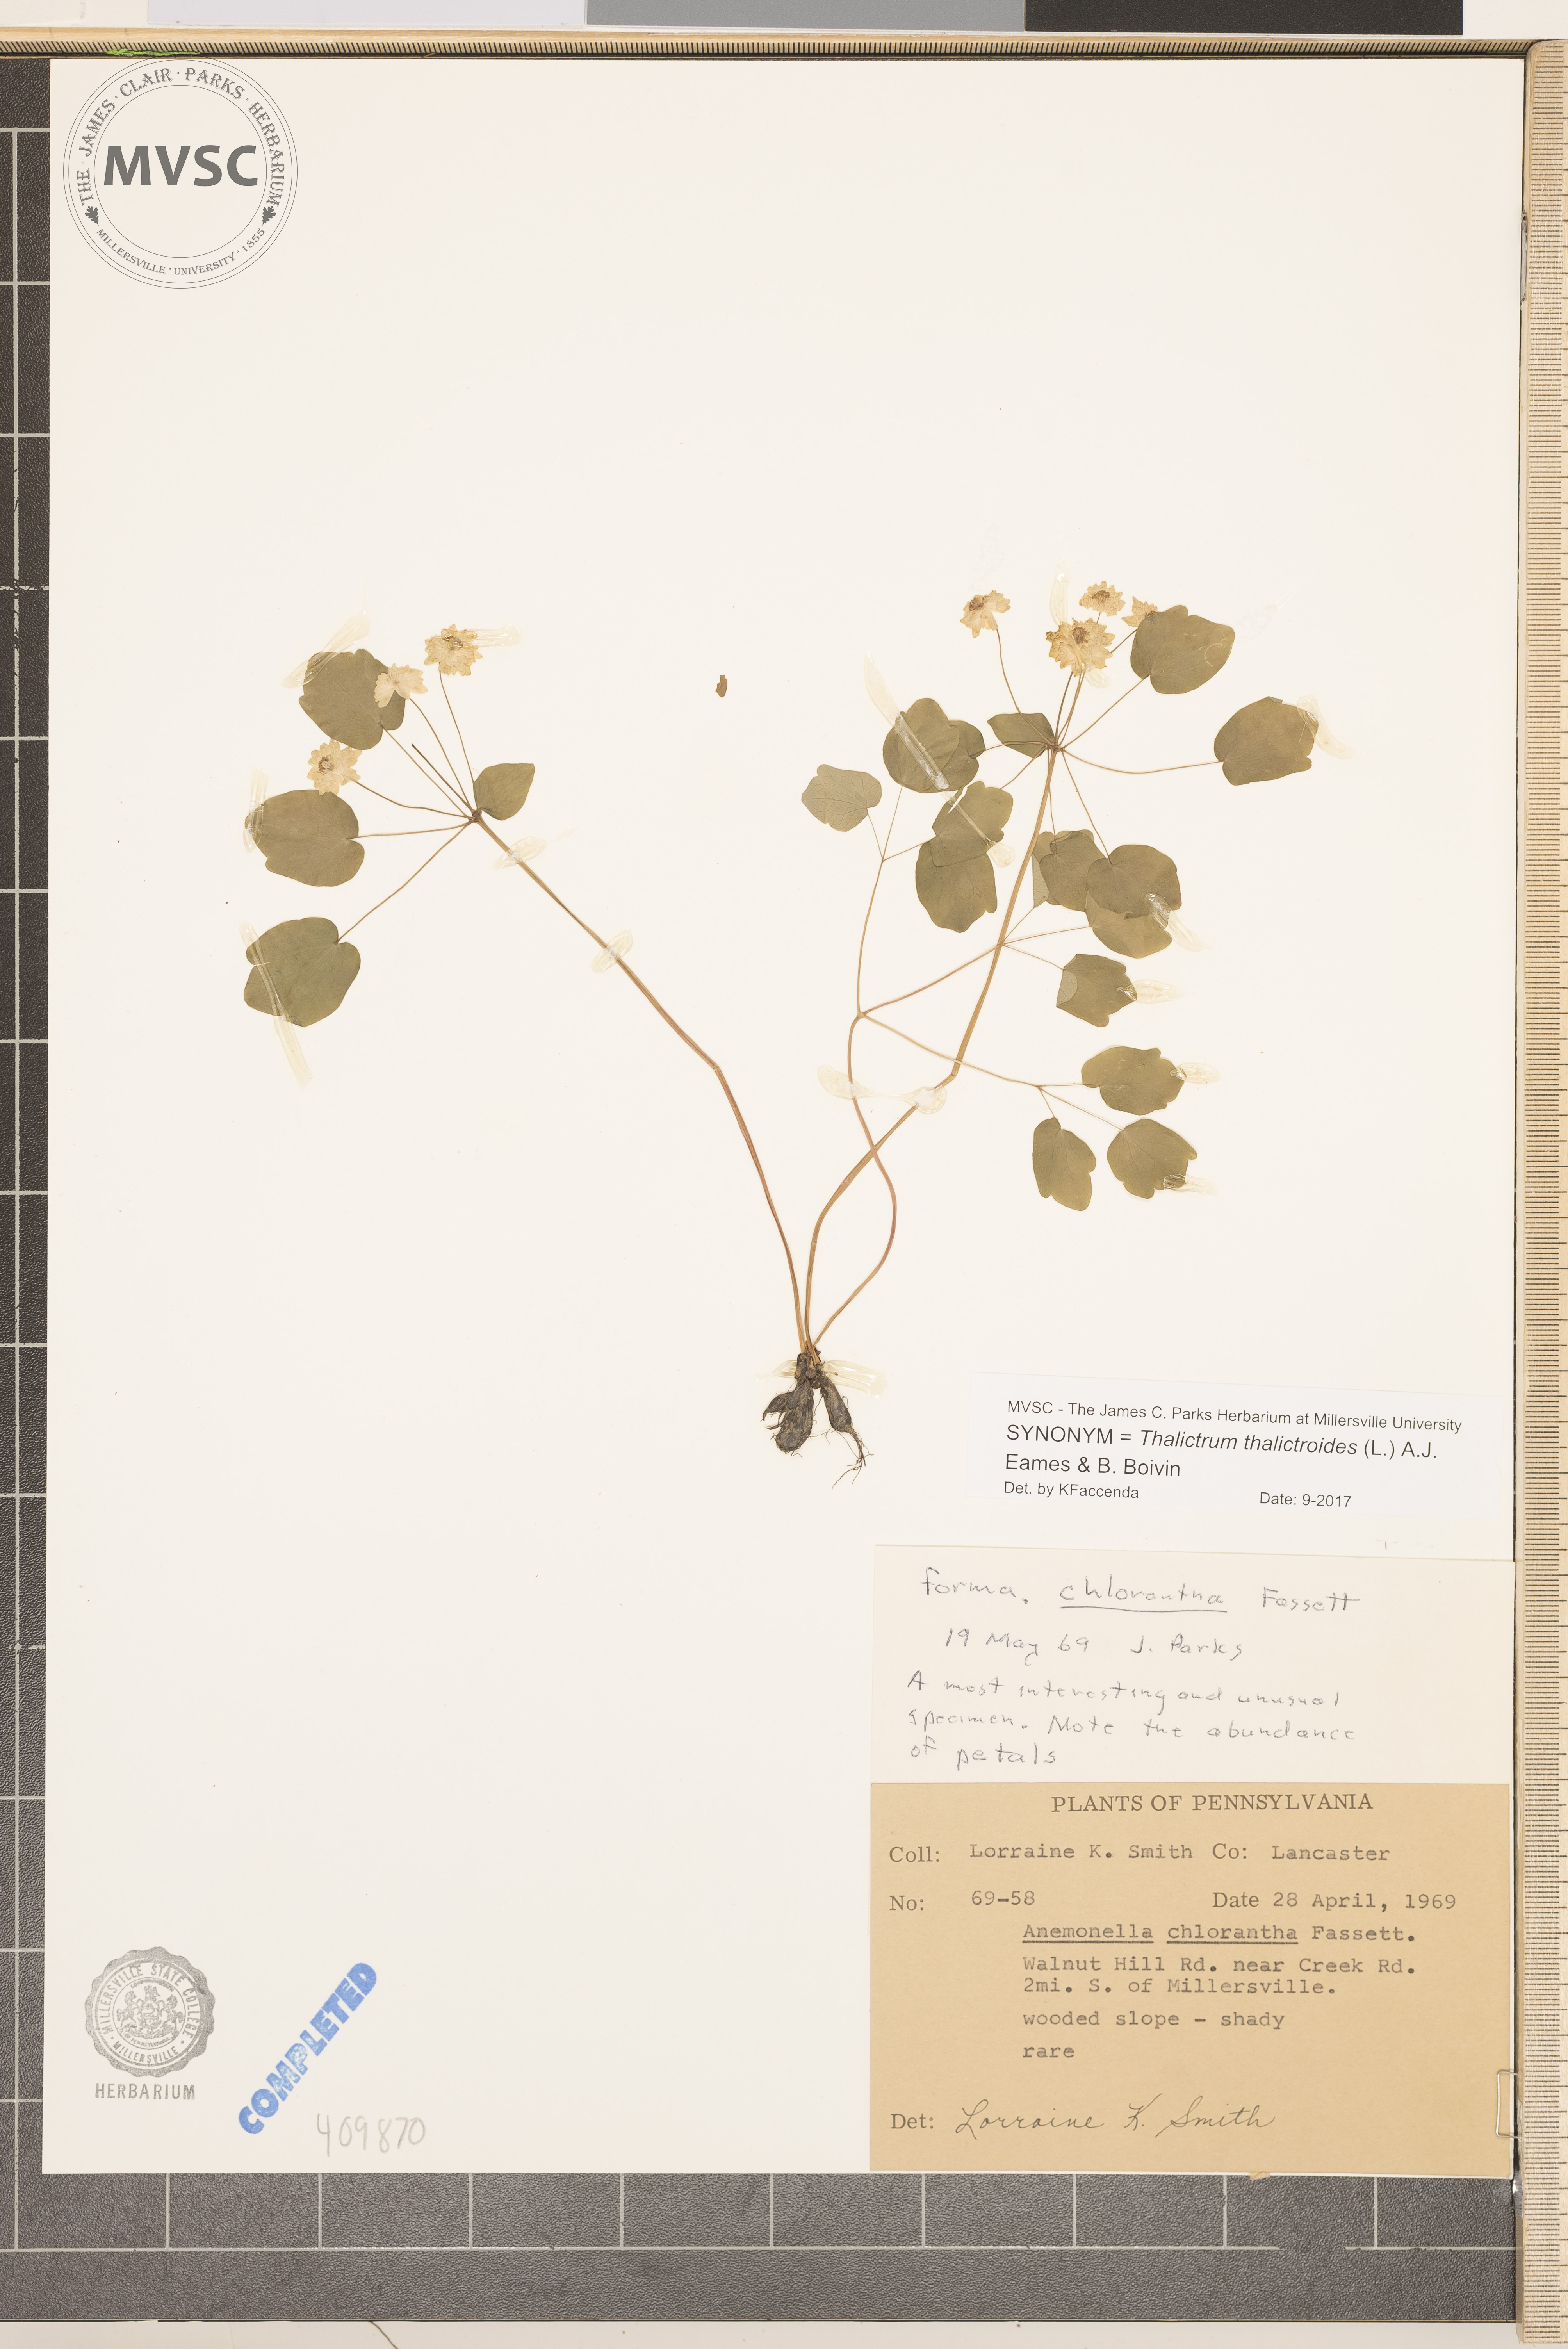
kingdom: Plantae
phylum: Tracheophyta
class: Magnoliopsida
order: Ranunculales
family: Ranunculaceae
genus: Thalictrum
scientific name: Thalictrum thalictroides
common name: Rue-anemone
